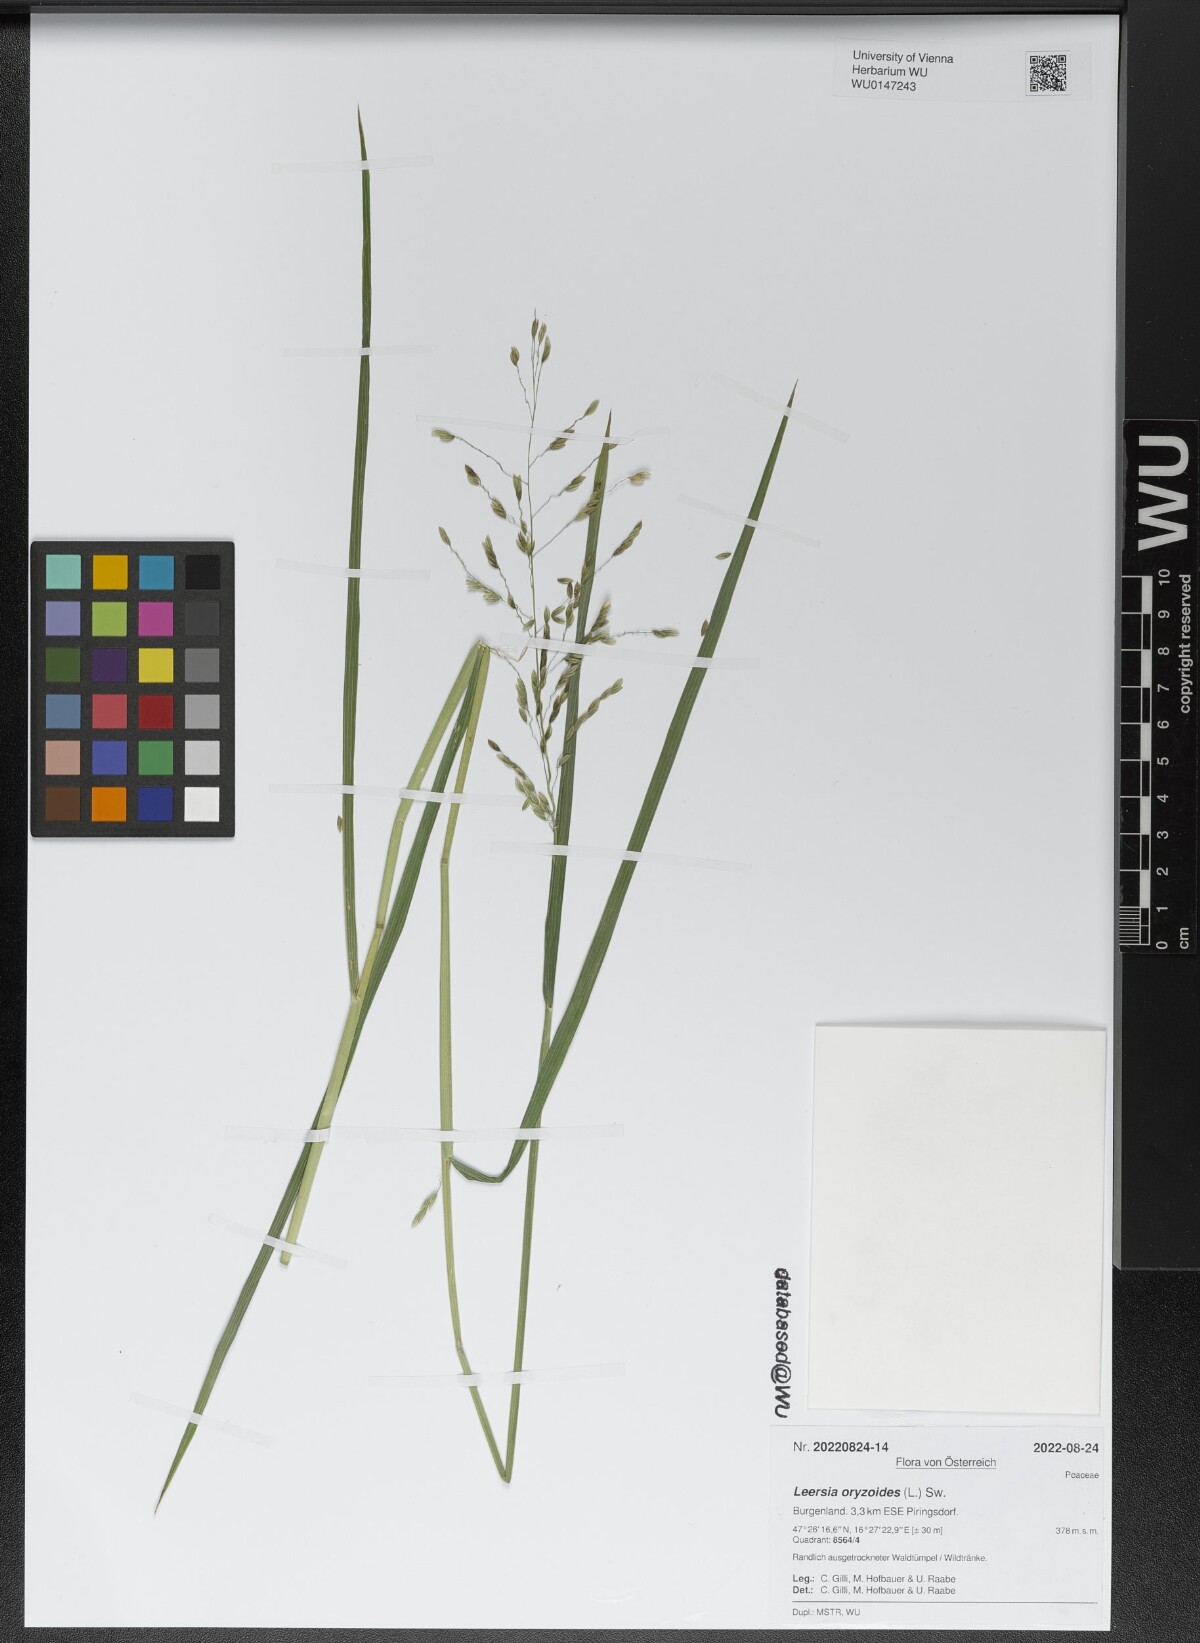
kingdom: Plantae
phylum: Tracheophyta
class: Liliopsida
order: Poales
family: Poaceae
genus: Leersia
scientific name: Leersia oryzoides
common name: Cut-grass
